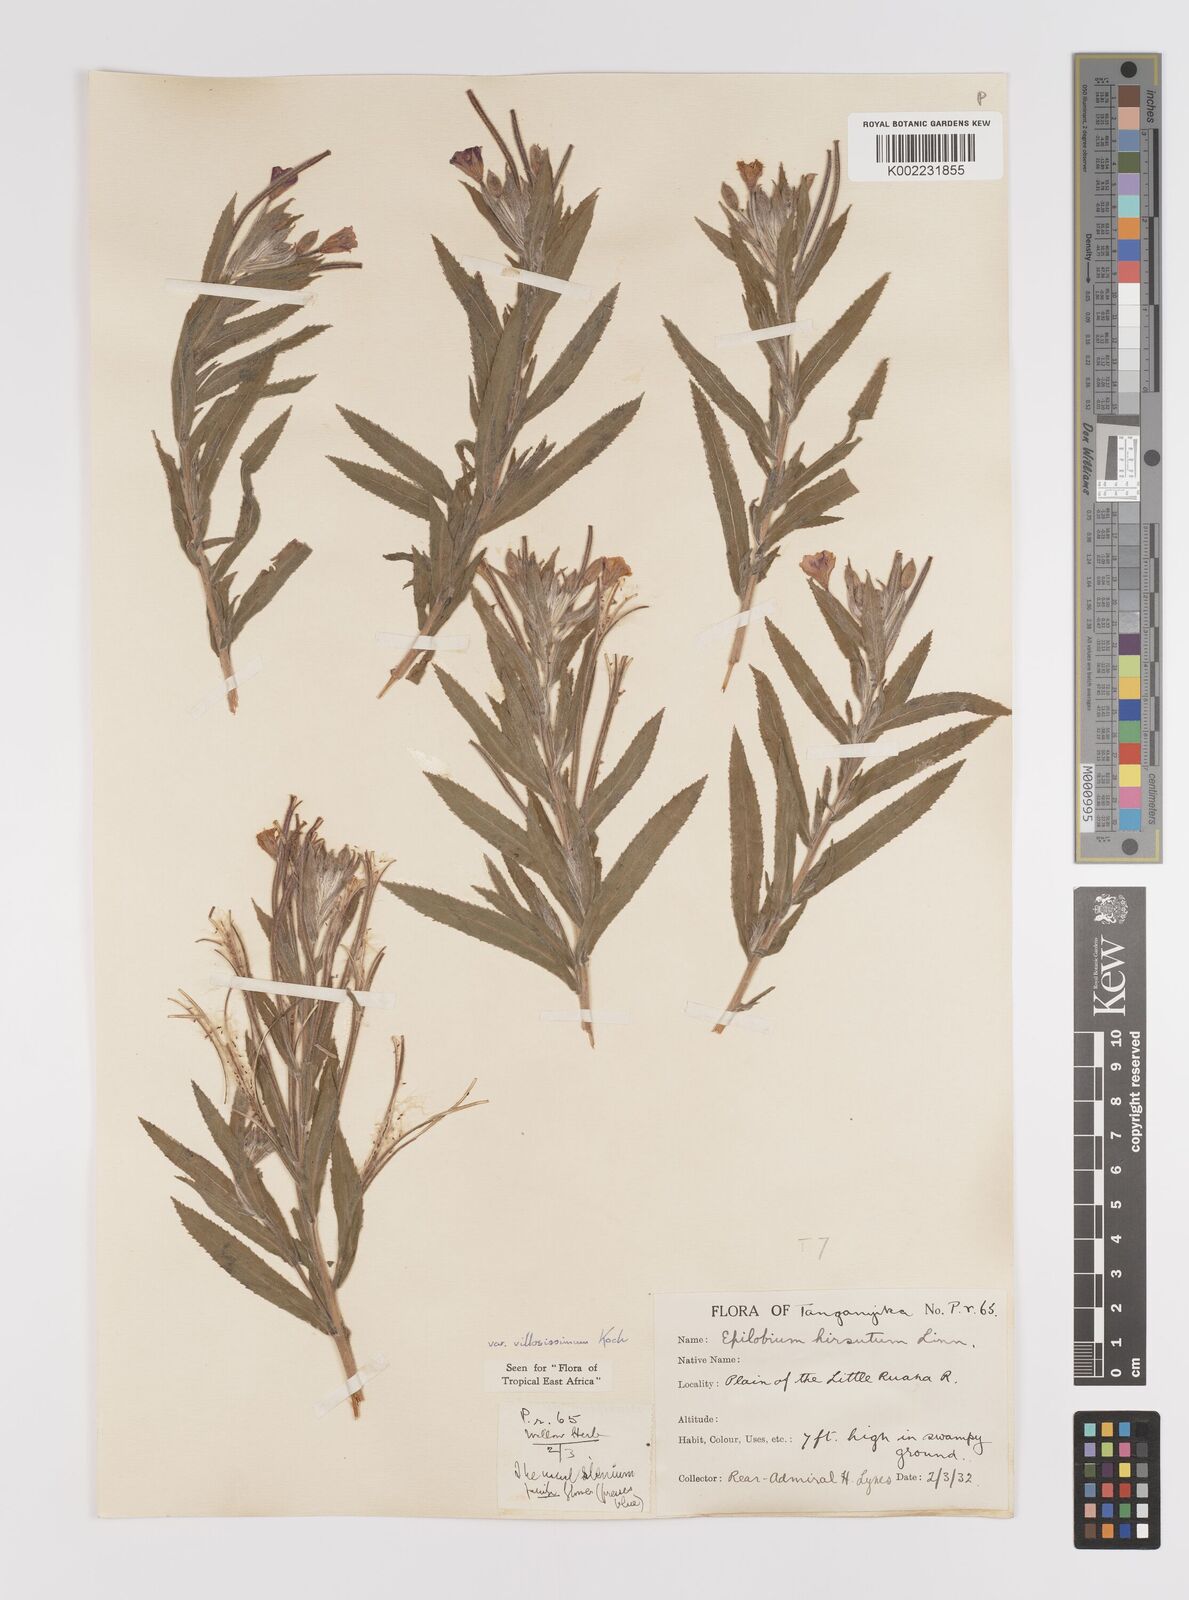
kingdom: Plantae
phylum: Tracheophyta
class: Magnoliopsida
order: Myrtales
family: Onagraceae
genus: Epilobium
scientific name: Epilobium hirsutum
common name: Great willowherb
